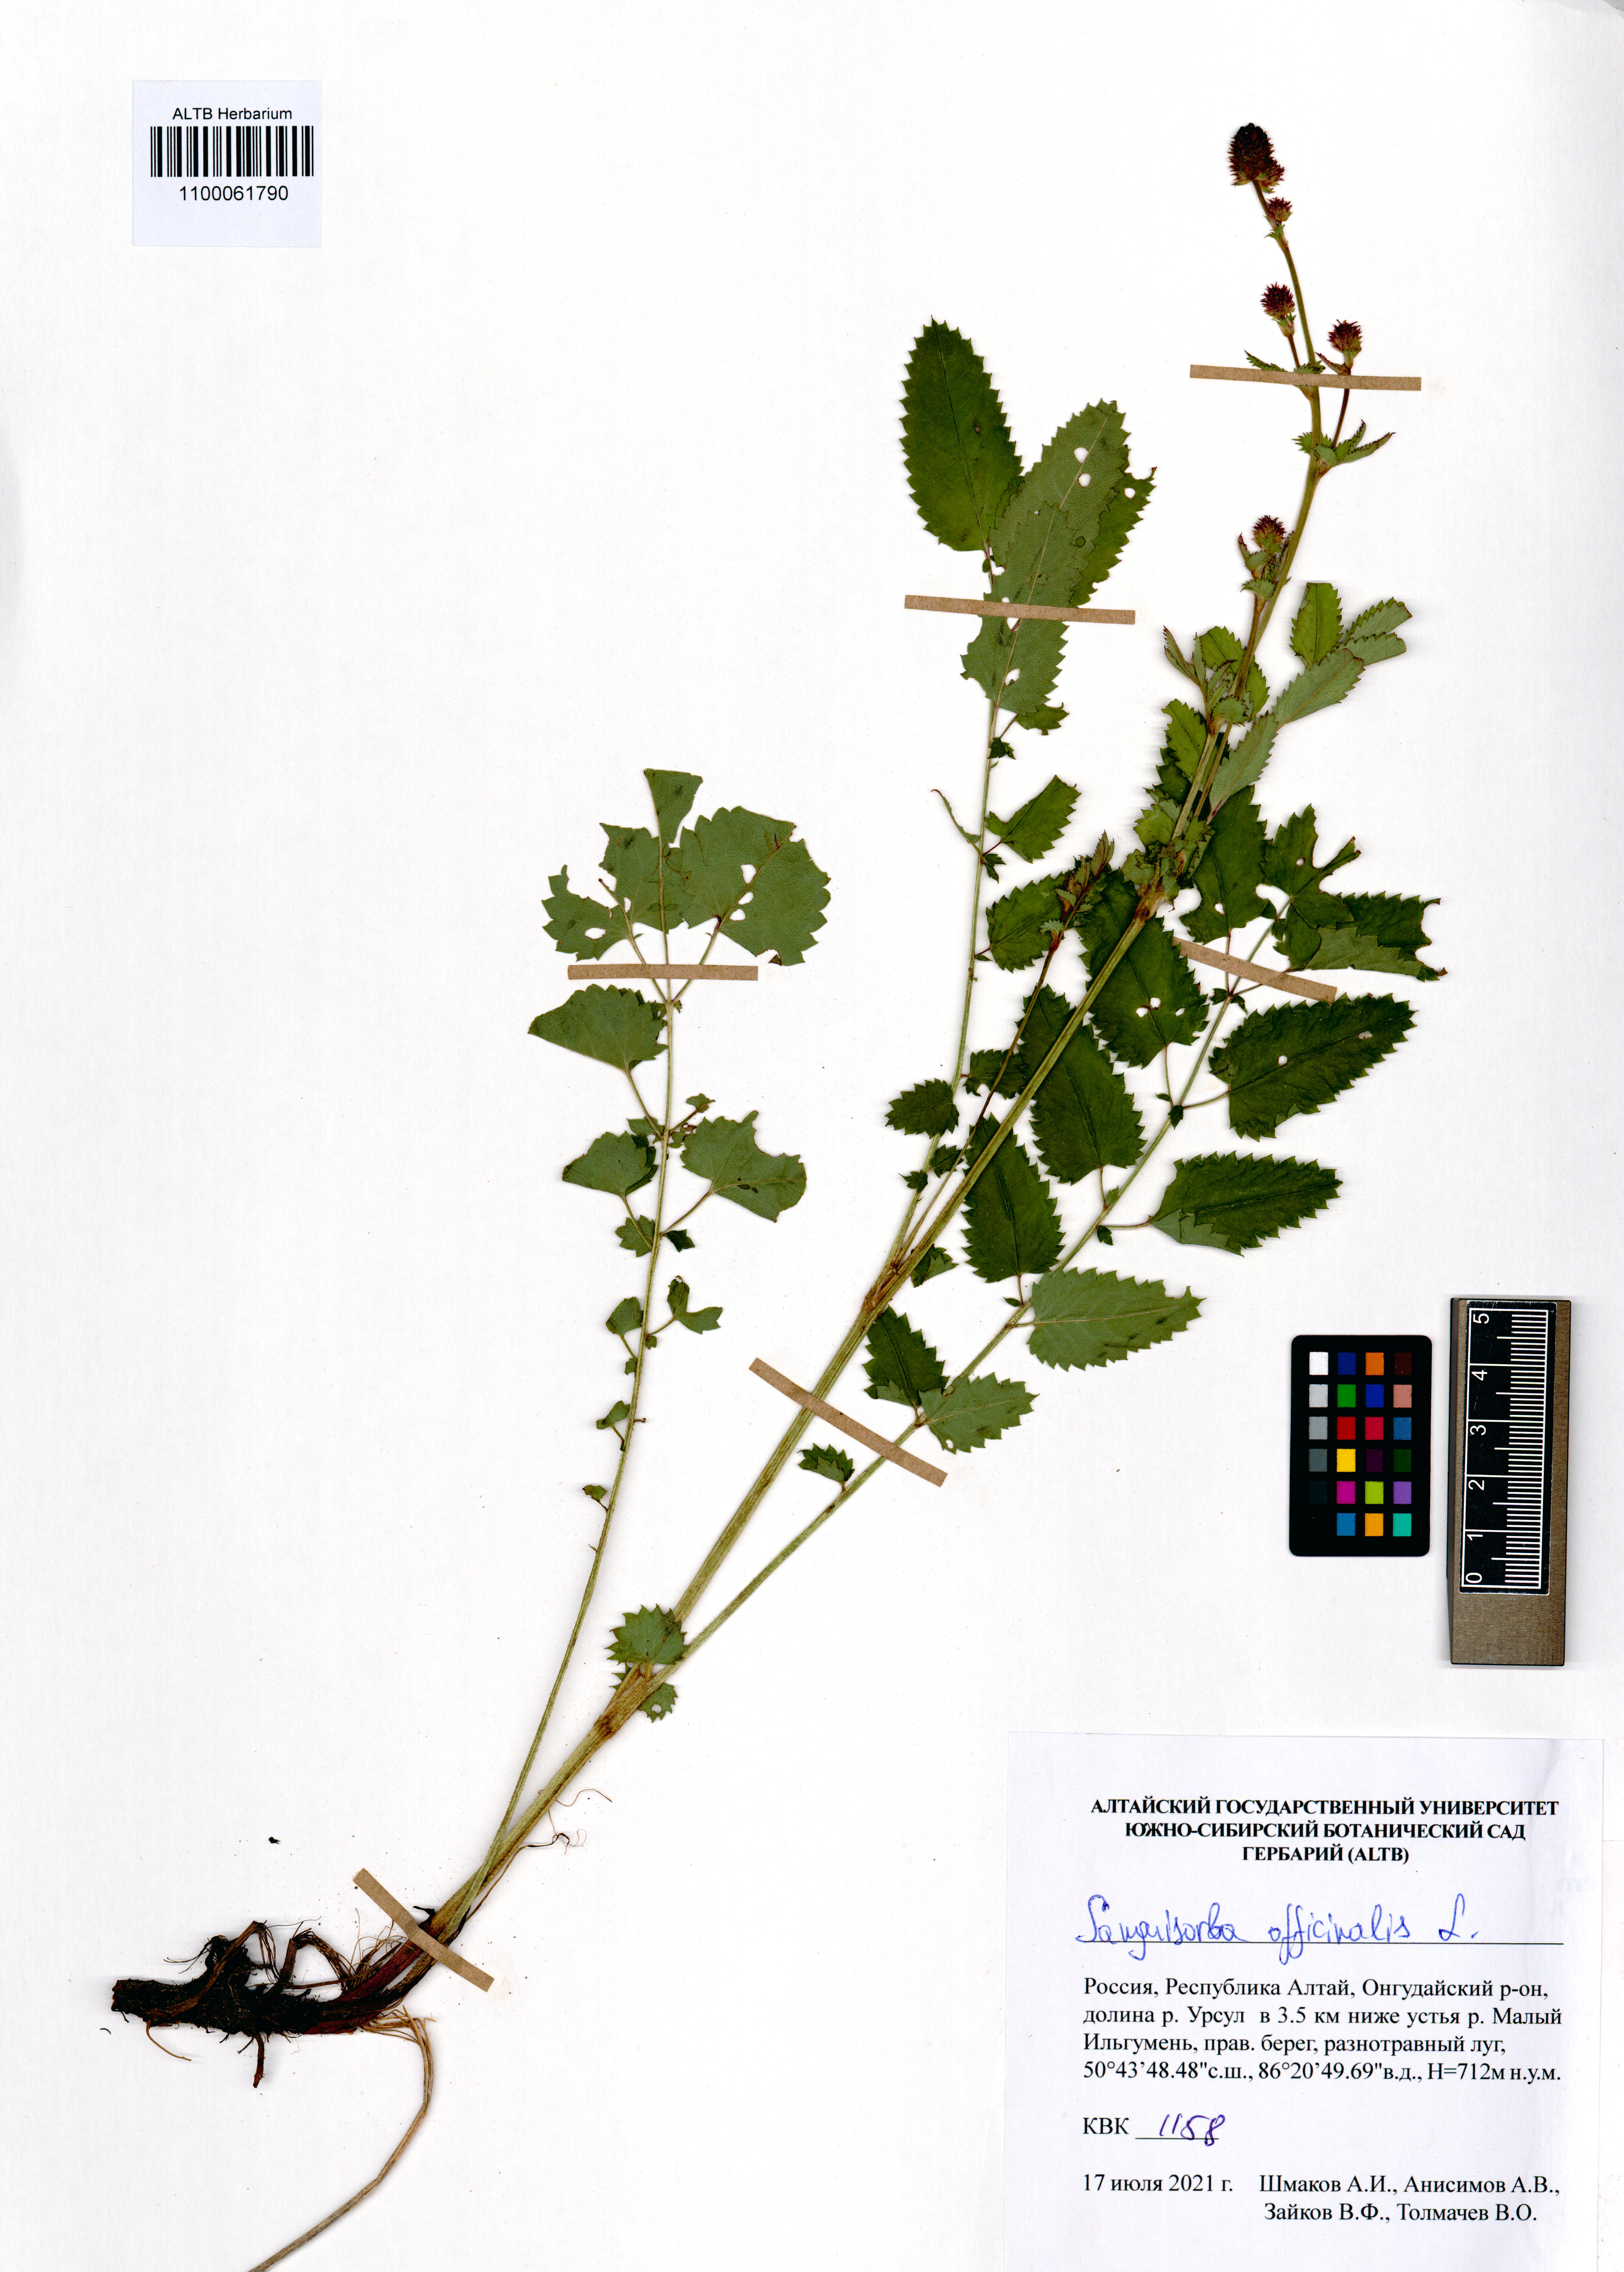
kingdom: Plantae
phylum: Tracheophyta
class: Magnoliopsida
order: Rosales
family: Rosaceae
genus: Sanguisorba
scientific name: Sanguisorba officinalis
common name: Great burnet
